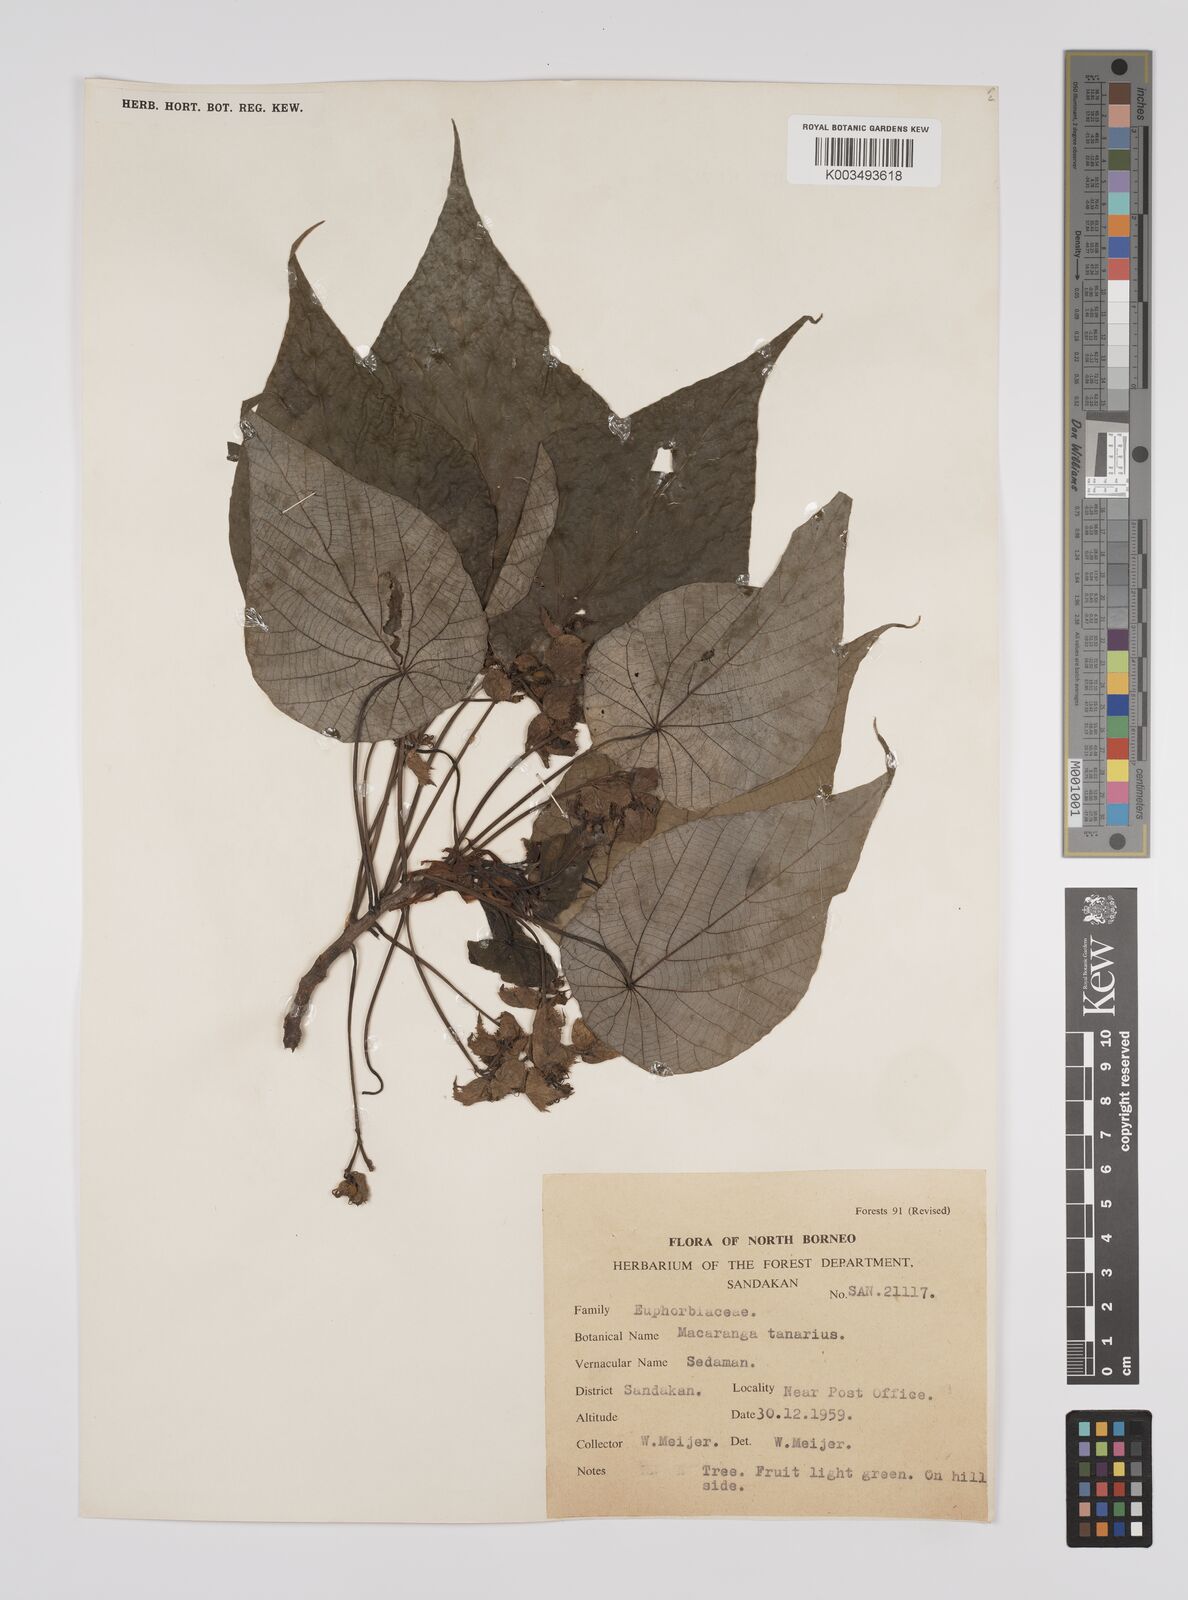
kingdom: Plantae
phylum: Tracheophyta
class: Magnoliopsida
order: Malpighiales
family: Euphorbiaceae
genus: Macaranga
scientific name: Macaranga tanarius
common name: Parasol leaf tree
